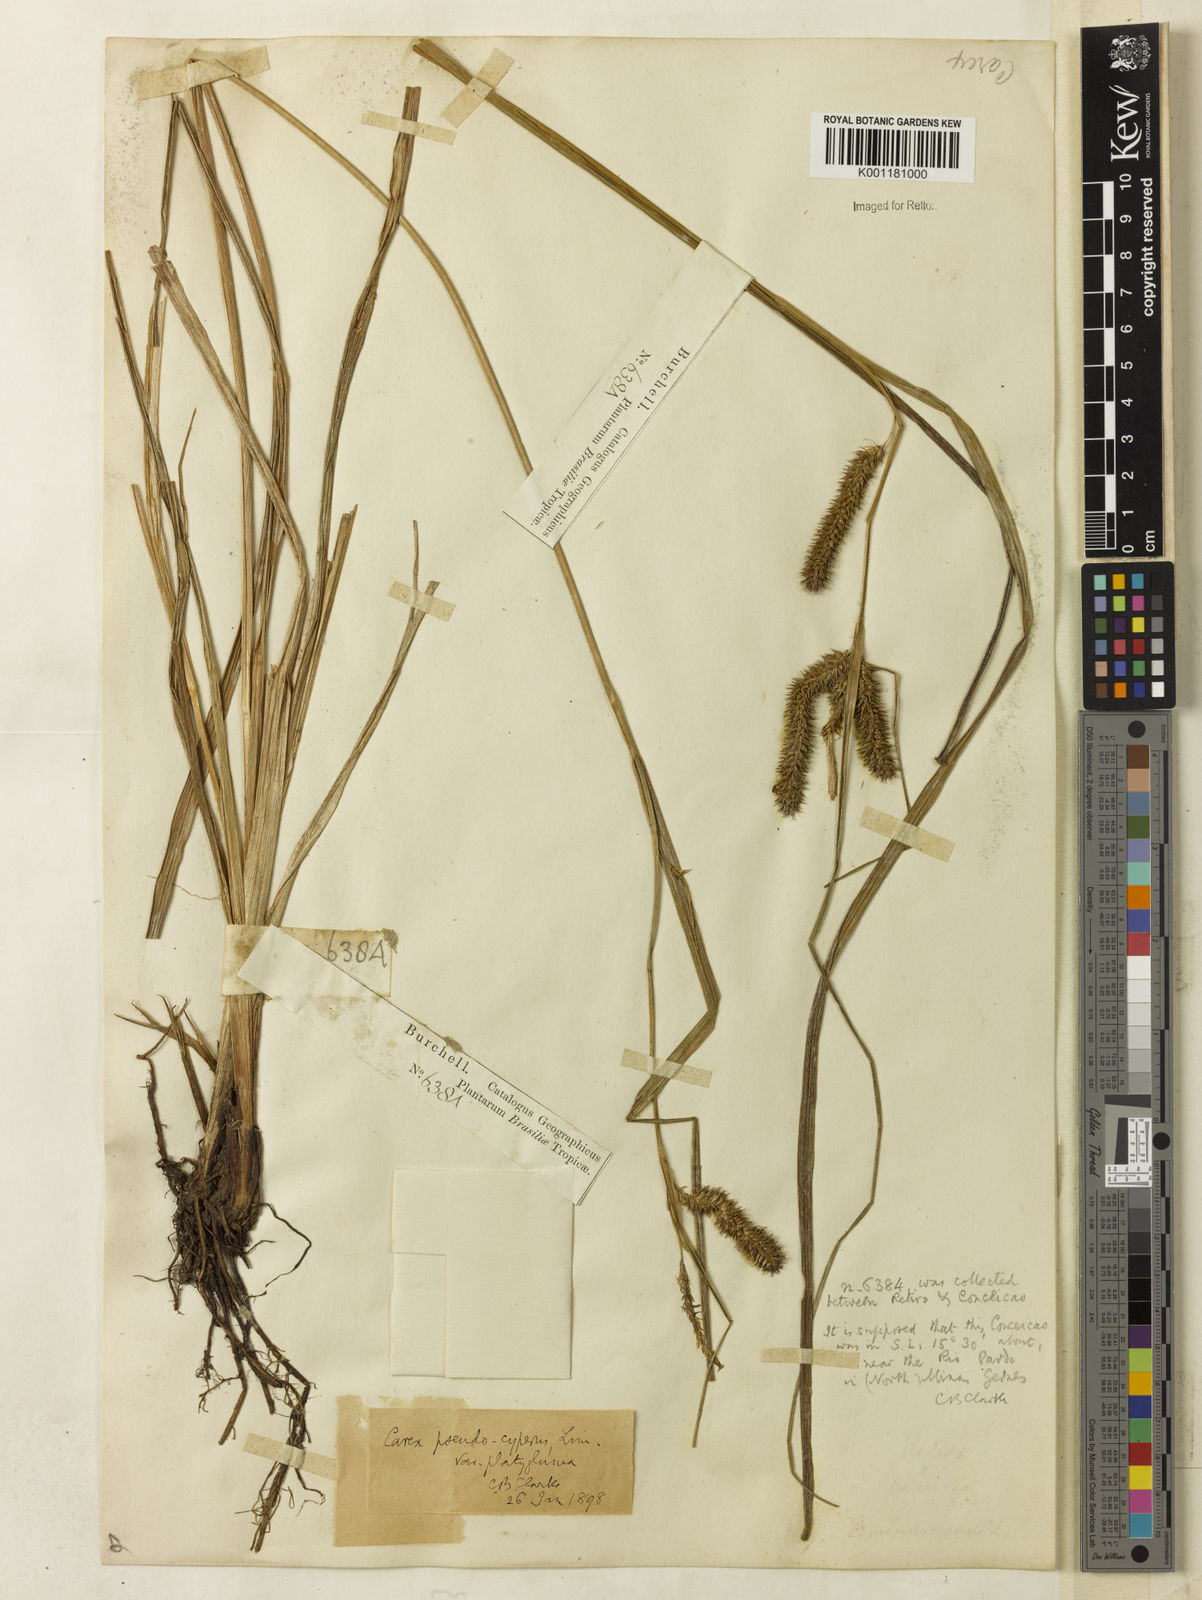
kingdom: Plantae
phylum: Tracheophyta
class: Liliopsida
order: Poales
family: Cyperaceae
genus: Carex
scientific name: Carex polysticha
